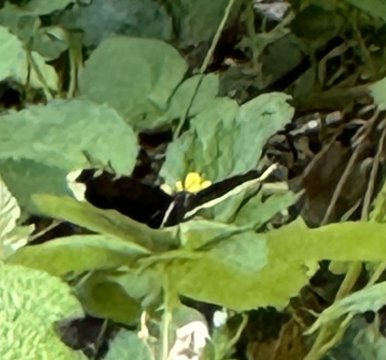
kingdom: Animalia
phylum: Arthropoda
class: Insecta
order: Lepidoptera
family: Nymphalidae
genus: Nymphalis
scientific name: Nymphalis antiopa
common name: Mourning Cloak
